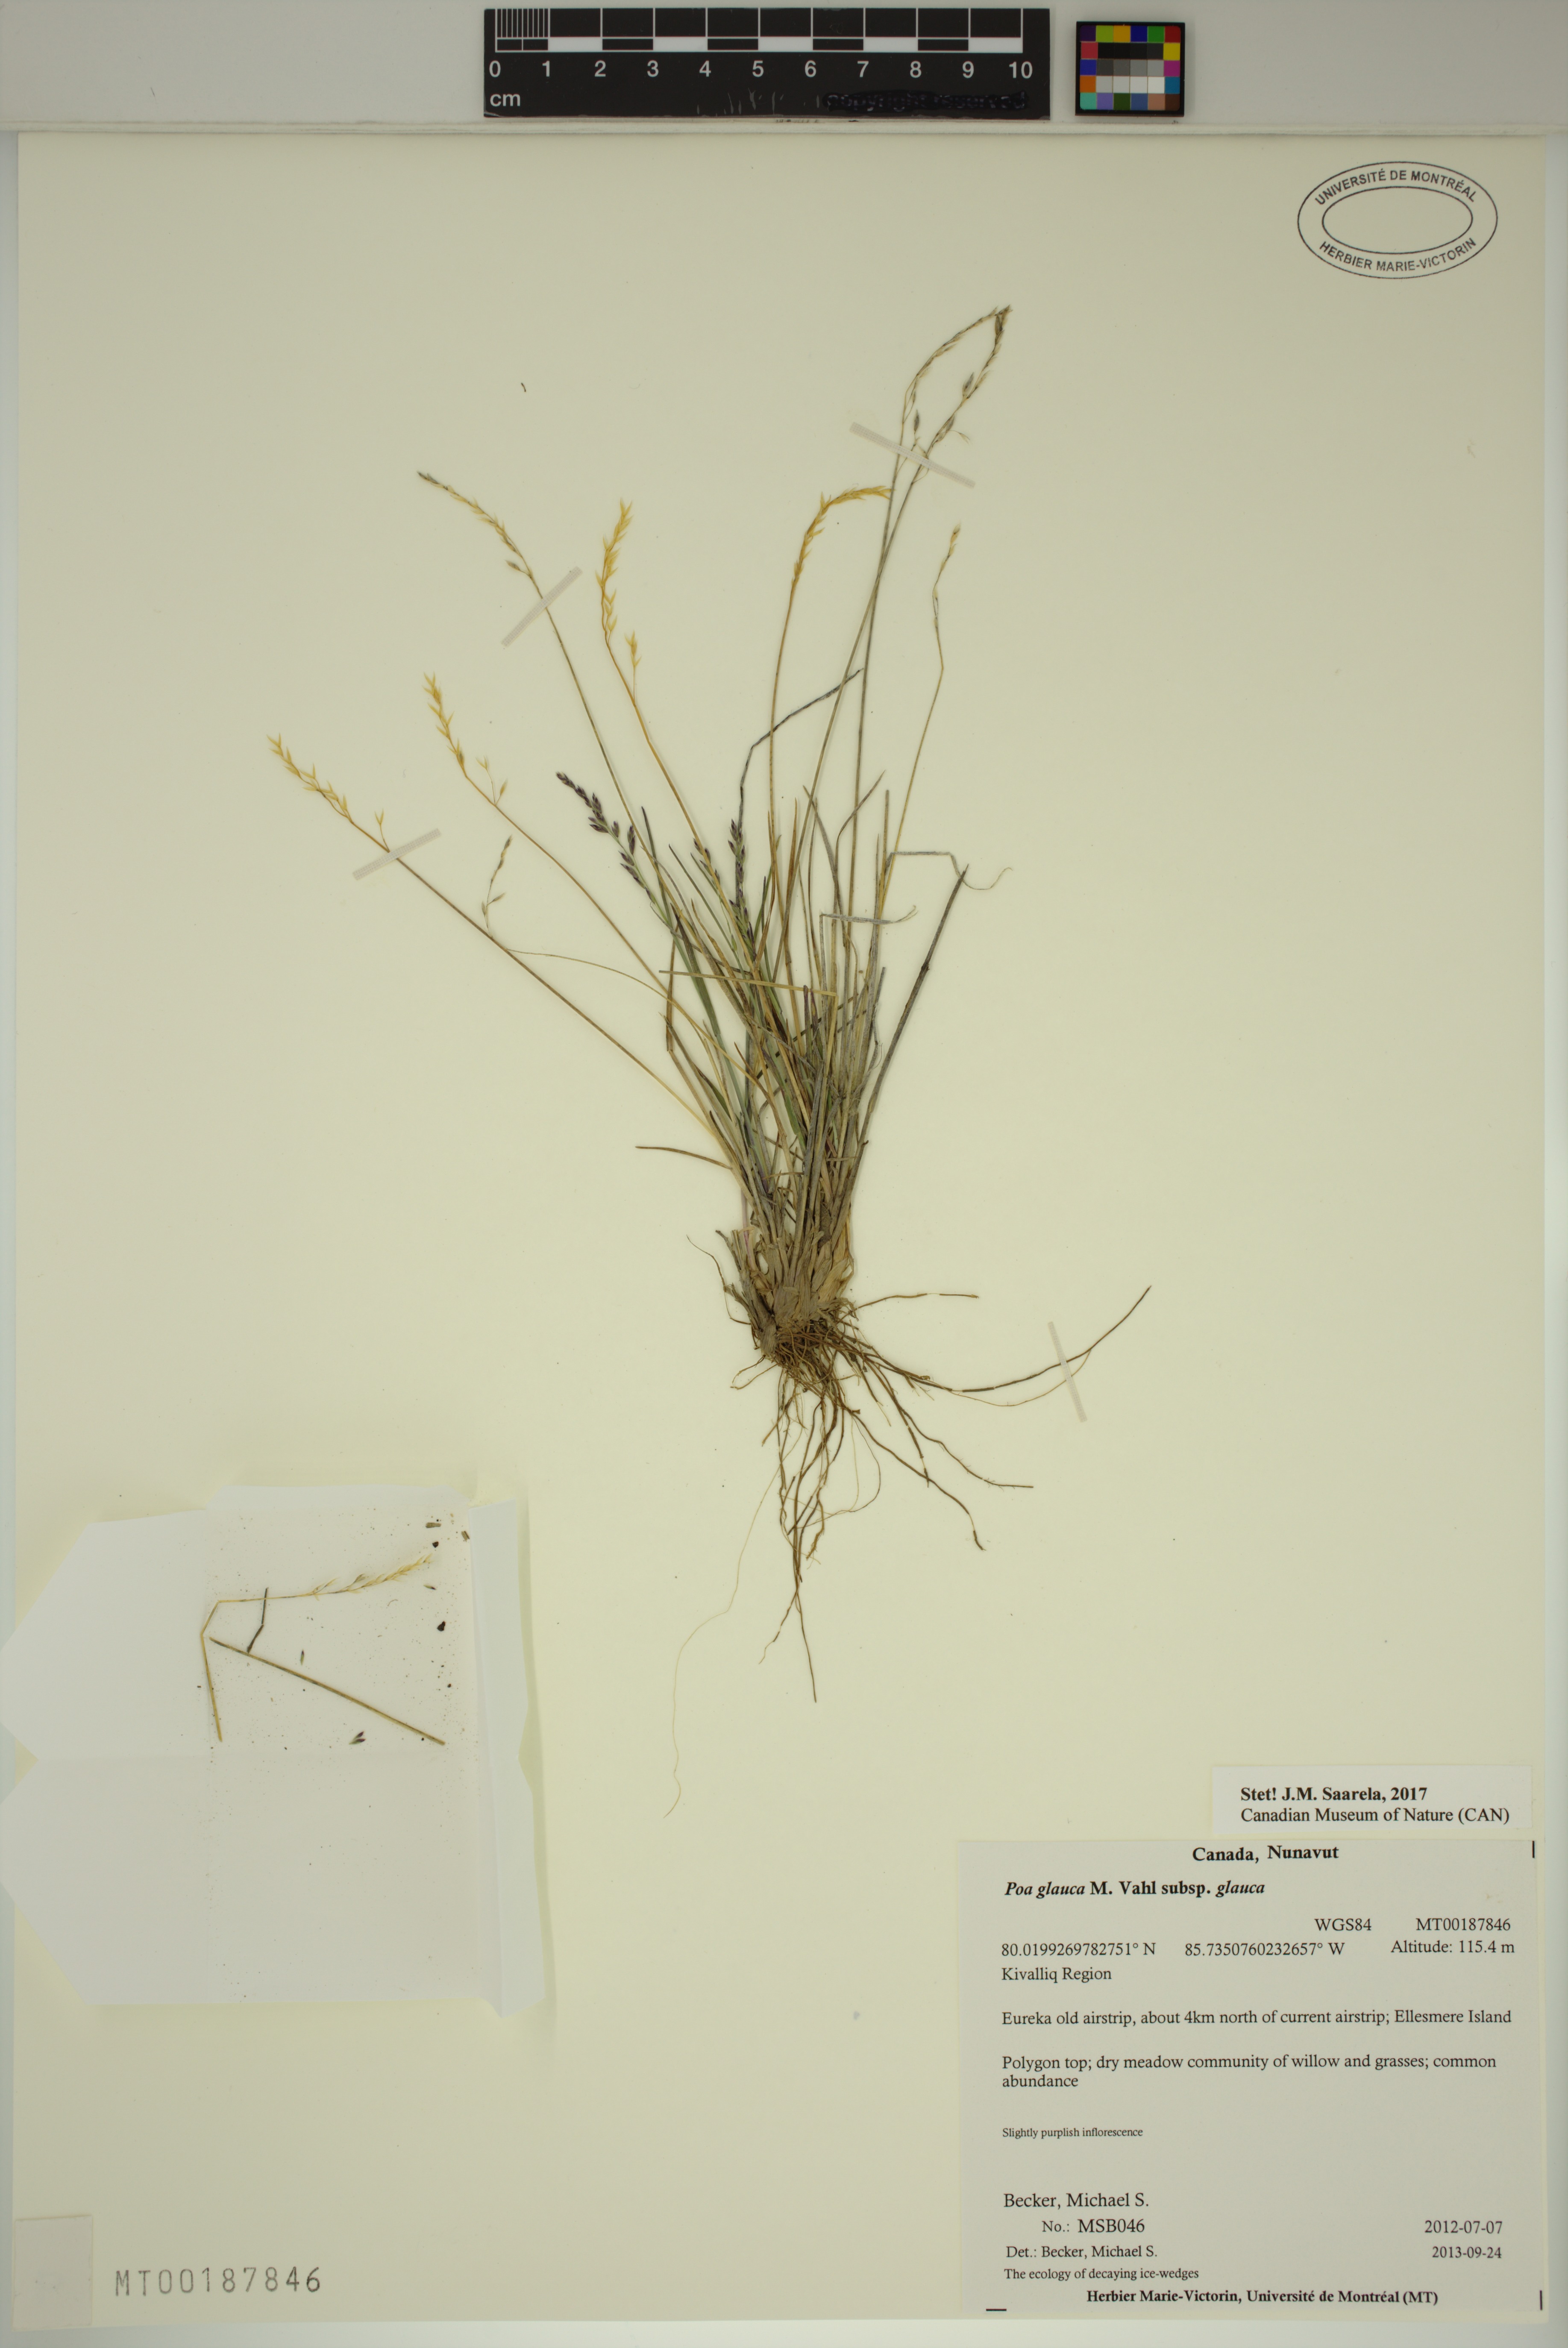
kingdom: Plantae
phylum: Tracheophyta
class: Liliopsida
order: Poales
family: Poaceae
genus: Poa
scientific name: Poa glauca
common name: Glaucous bluegrass
